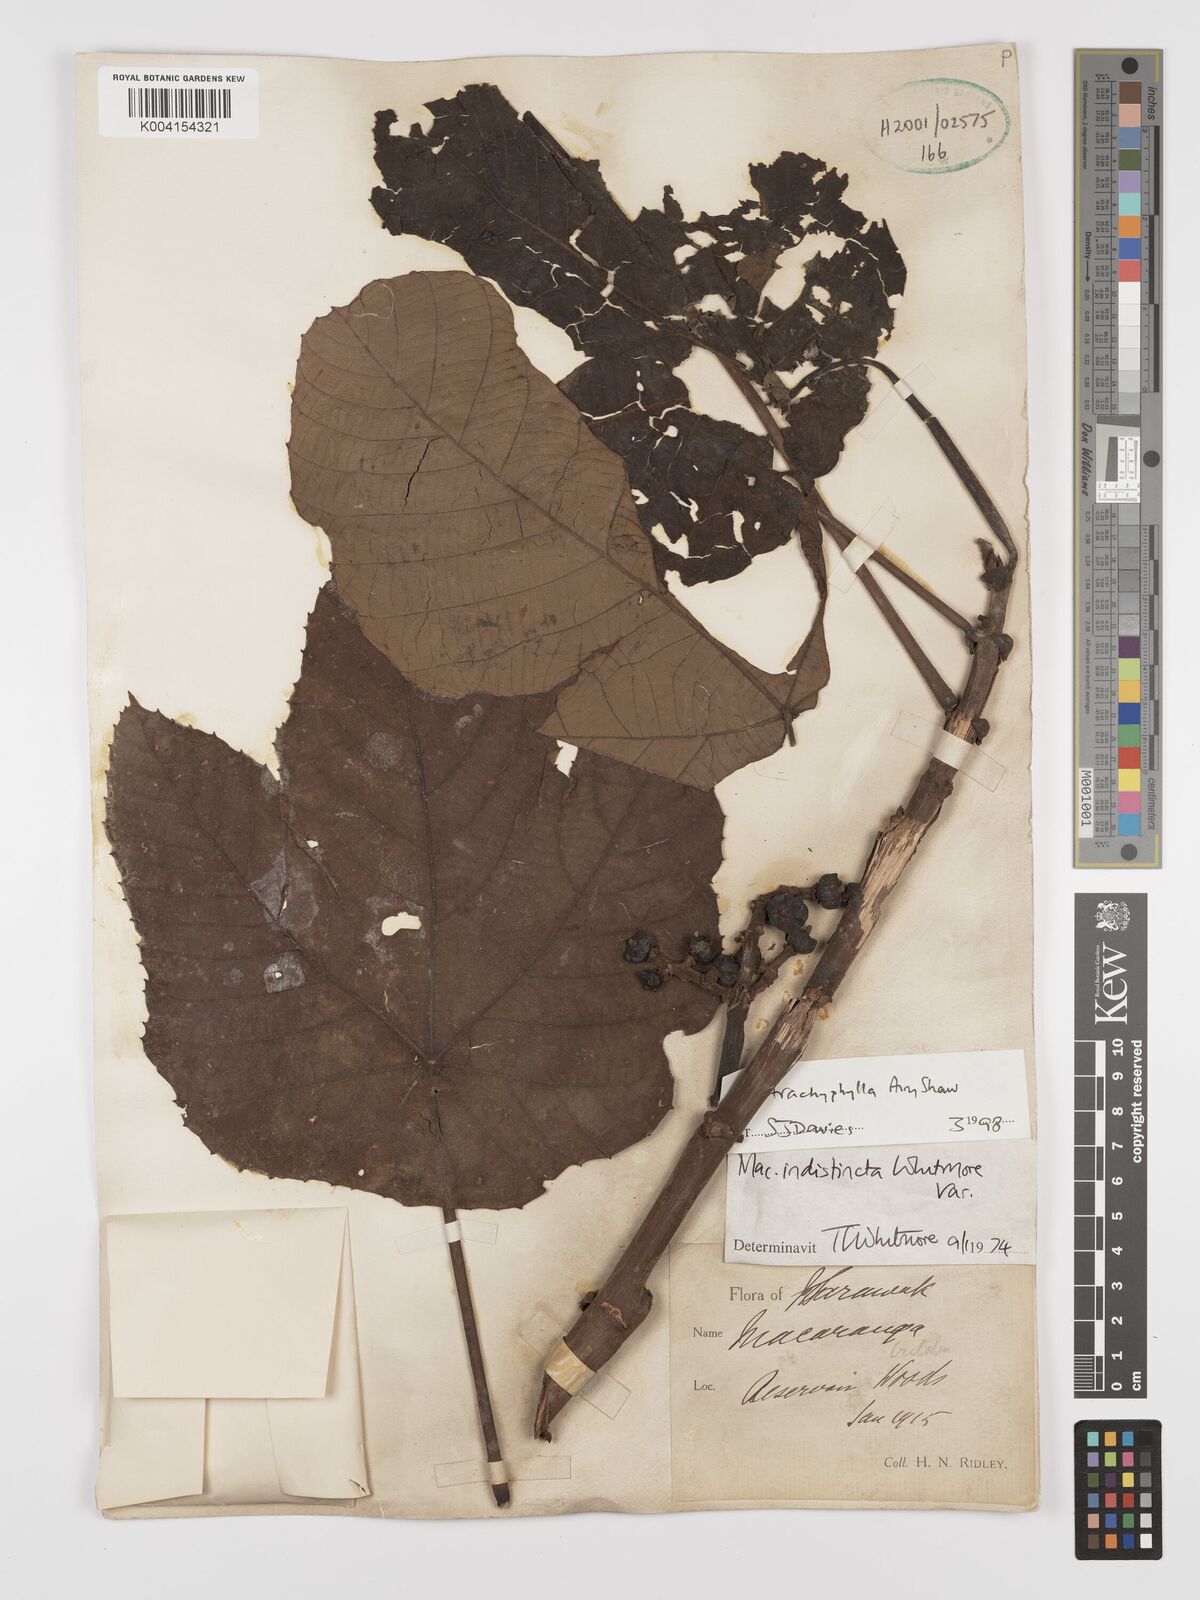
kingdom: Plantae
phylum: Tracheophyta
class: Magnoliopsida
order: Malpighiales
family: Euphorbiaceae
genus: Macaranga
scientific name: Macaranga trachyphylla
